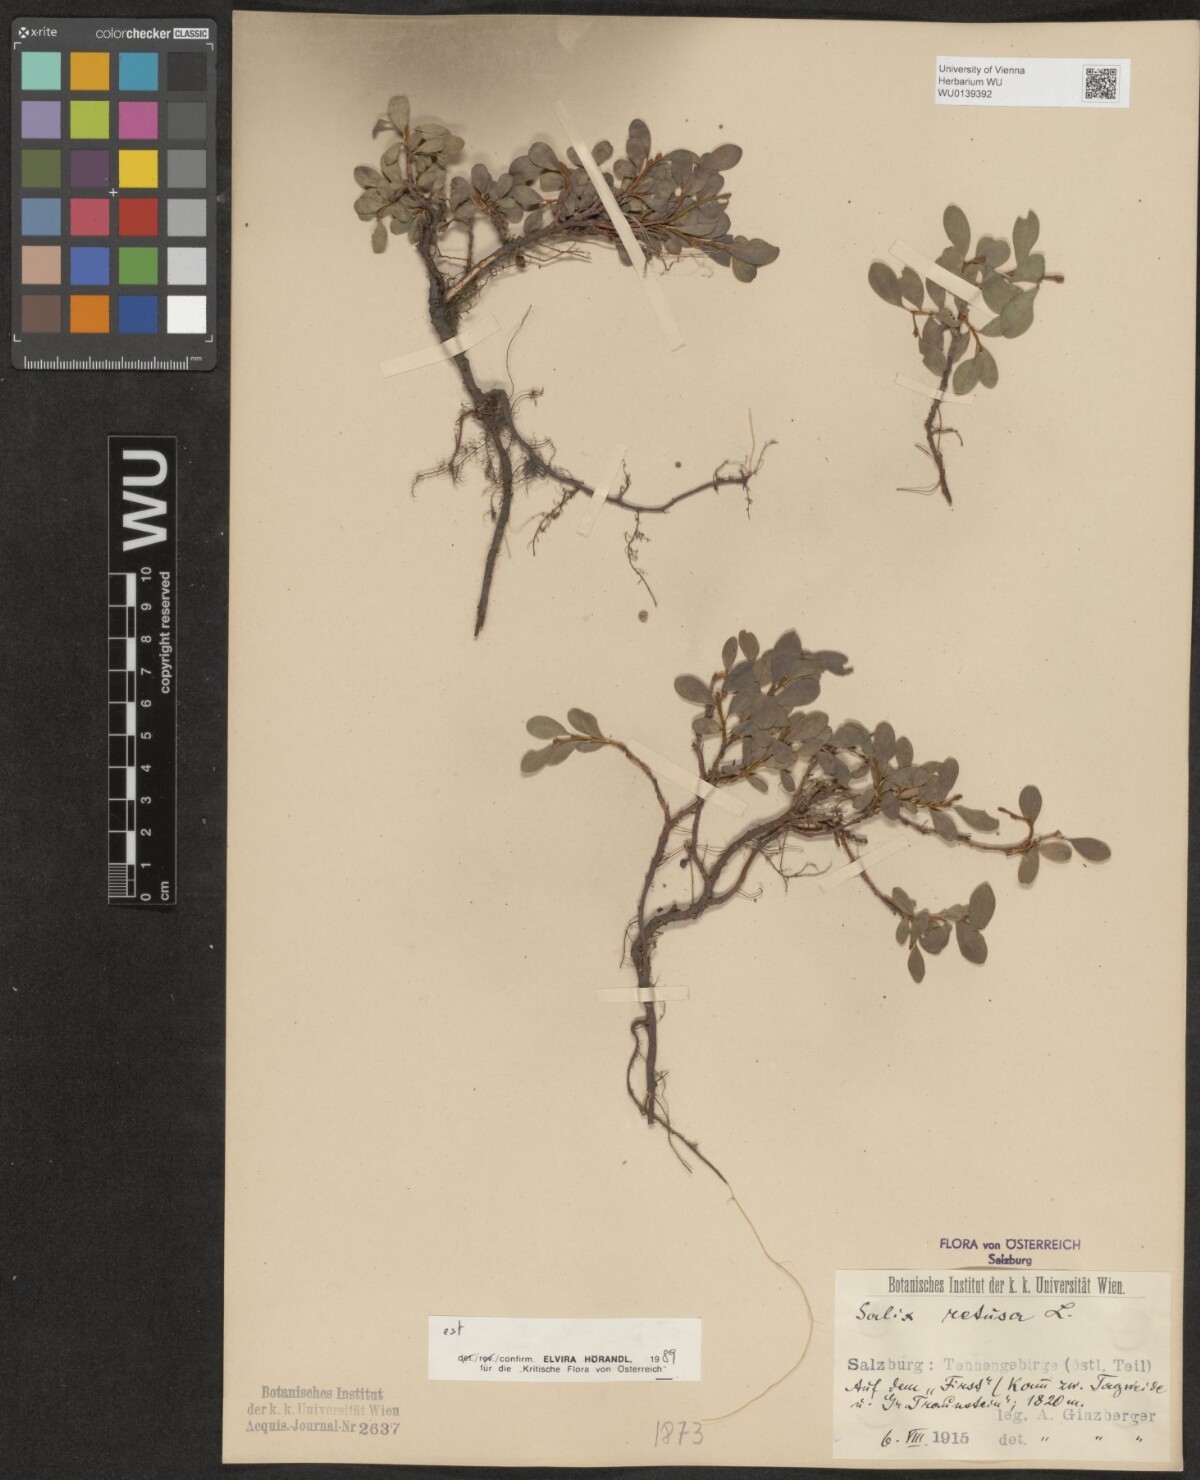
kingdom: Plantae
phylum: Tracheophyta
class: Magnoliopsida
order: Malpighiales
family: Salicaceae
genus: Salix
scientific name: Salix retusa
